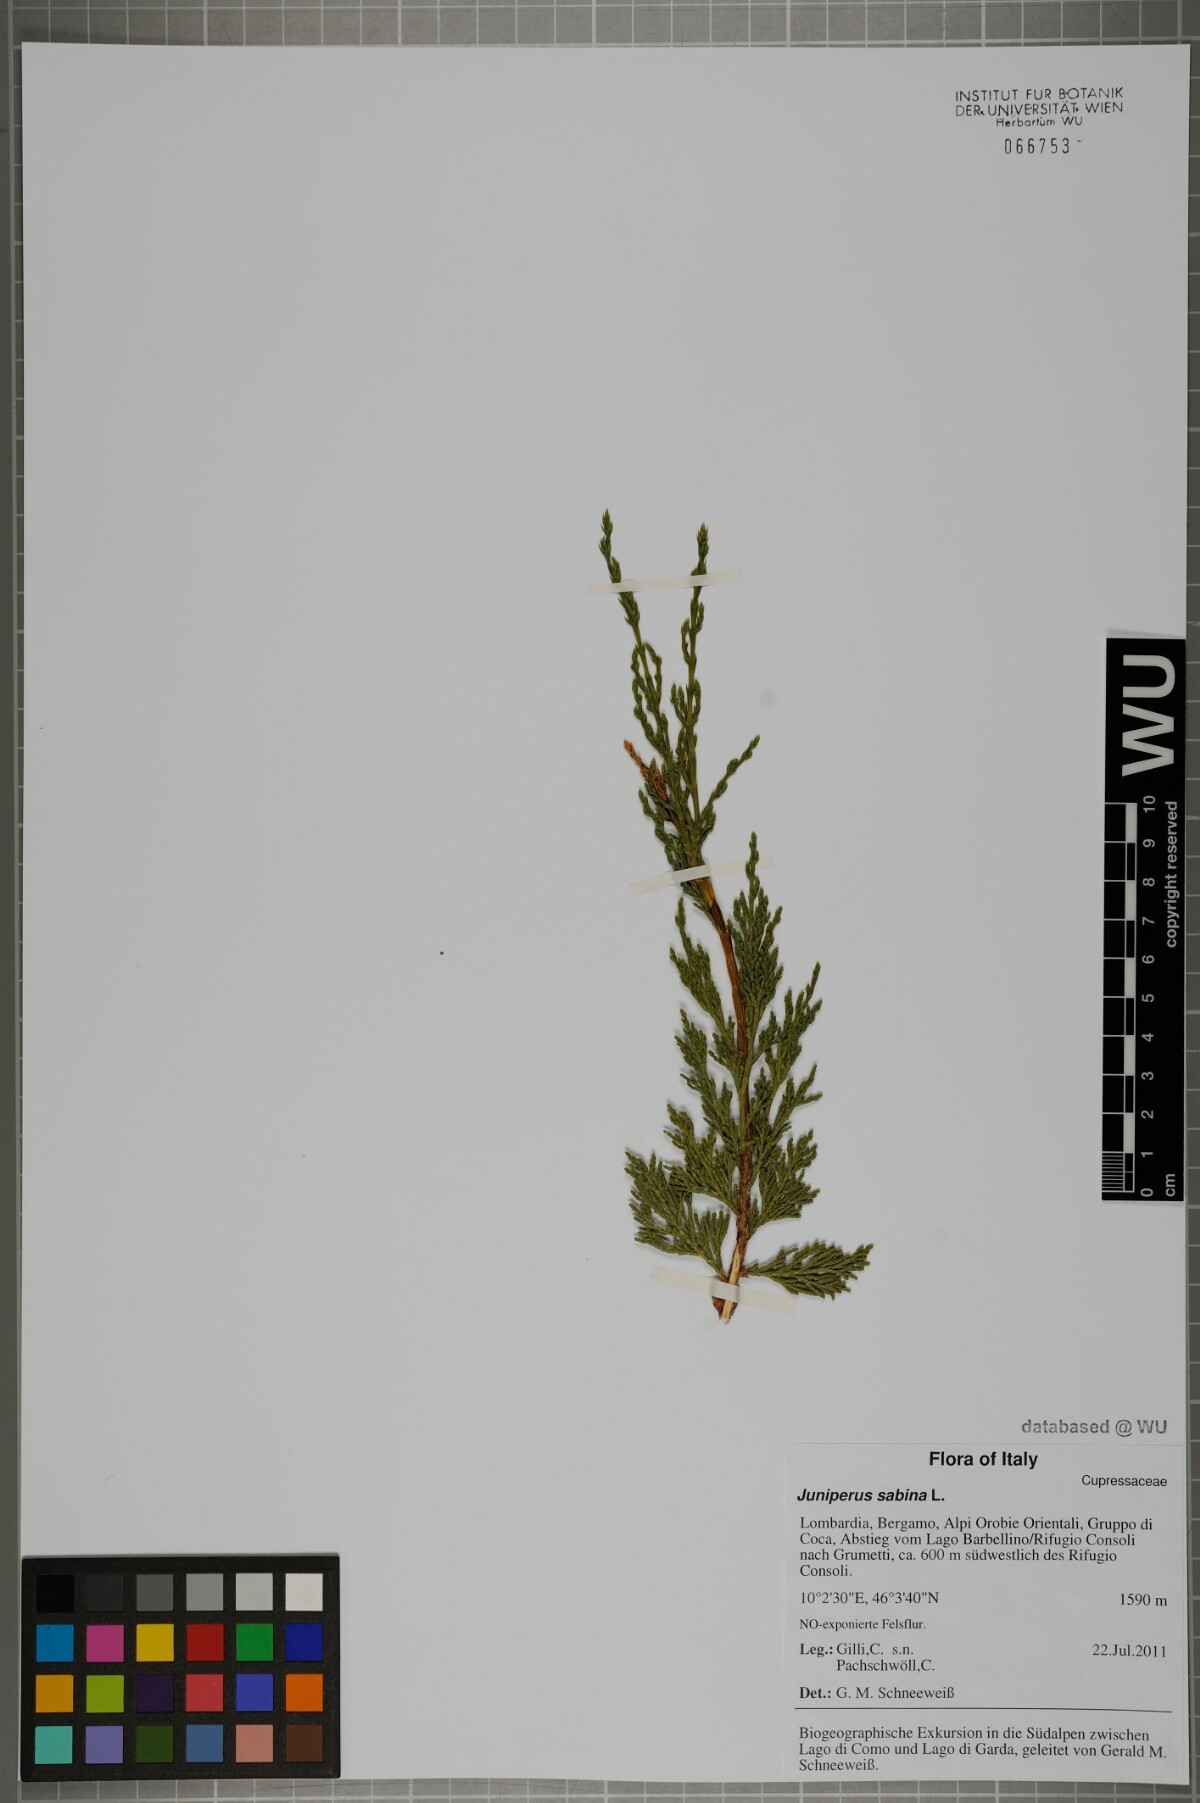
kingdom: Plantae
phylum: Tracheophyta
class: Pinopsida
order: Pinales
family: Cupressaceae
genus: Juniperus
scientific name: Juniperus sabina
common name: Savin
